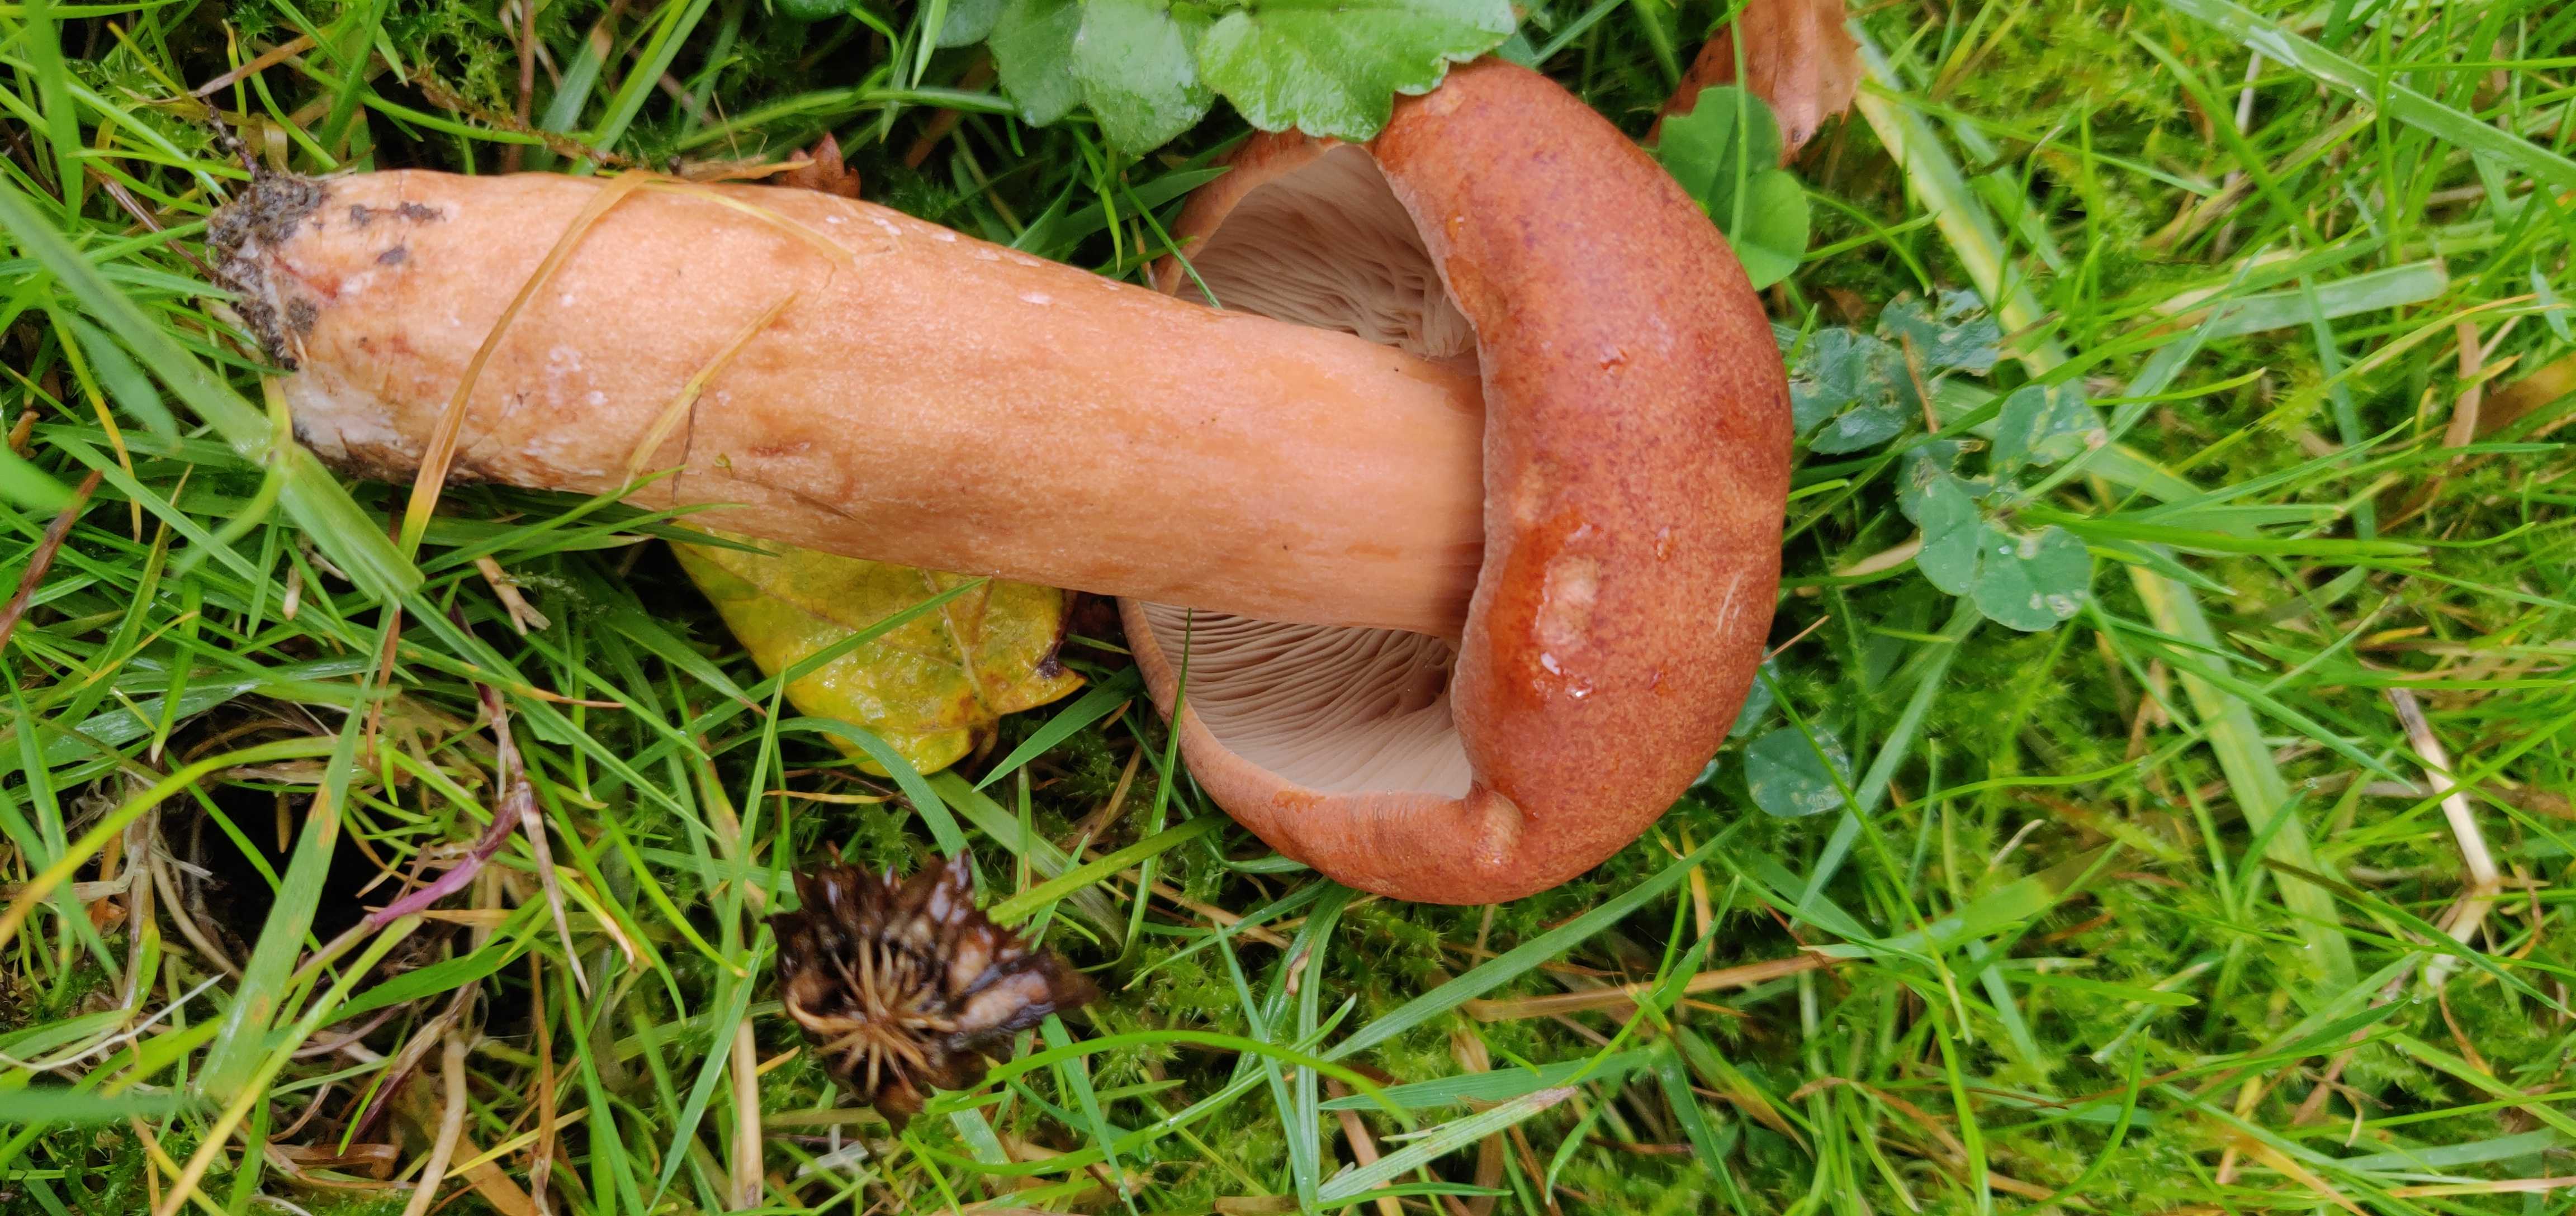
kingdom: Fungi
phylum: Basidiomycota
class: Agaricomycetes
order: Russulales
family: Russulaceae
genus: Lactarius
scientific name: Lactarius fulvissimus
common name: ræve-mælkehat
